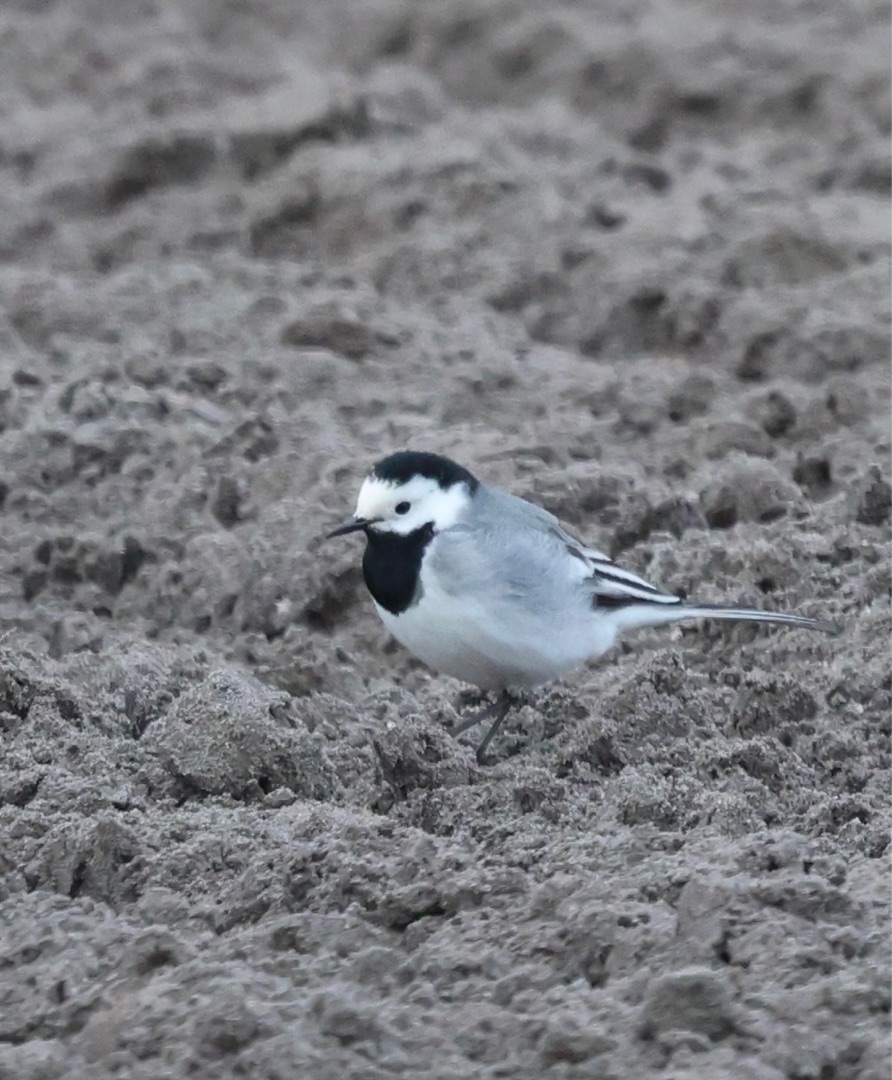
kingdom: Animalia
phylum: Chordata
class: Aves
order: Passeriformes
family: Motacillidae
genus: Motacilla
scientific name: Motacilla alba
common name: Hvid vipstjert
